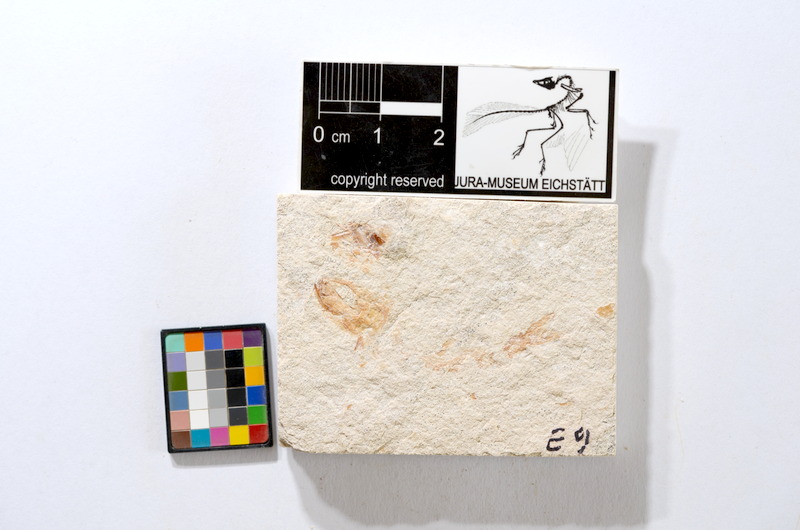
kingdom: Animalia
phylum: Chordata
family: Ascalaboidae
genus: Tharsis
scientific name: Tharsis dubius
